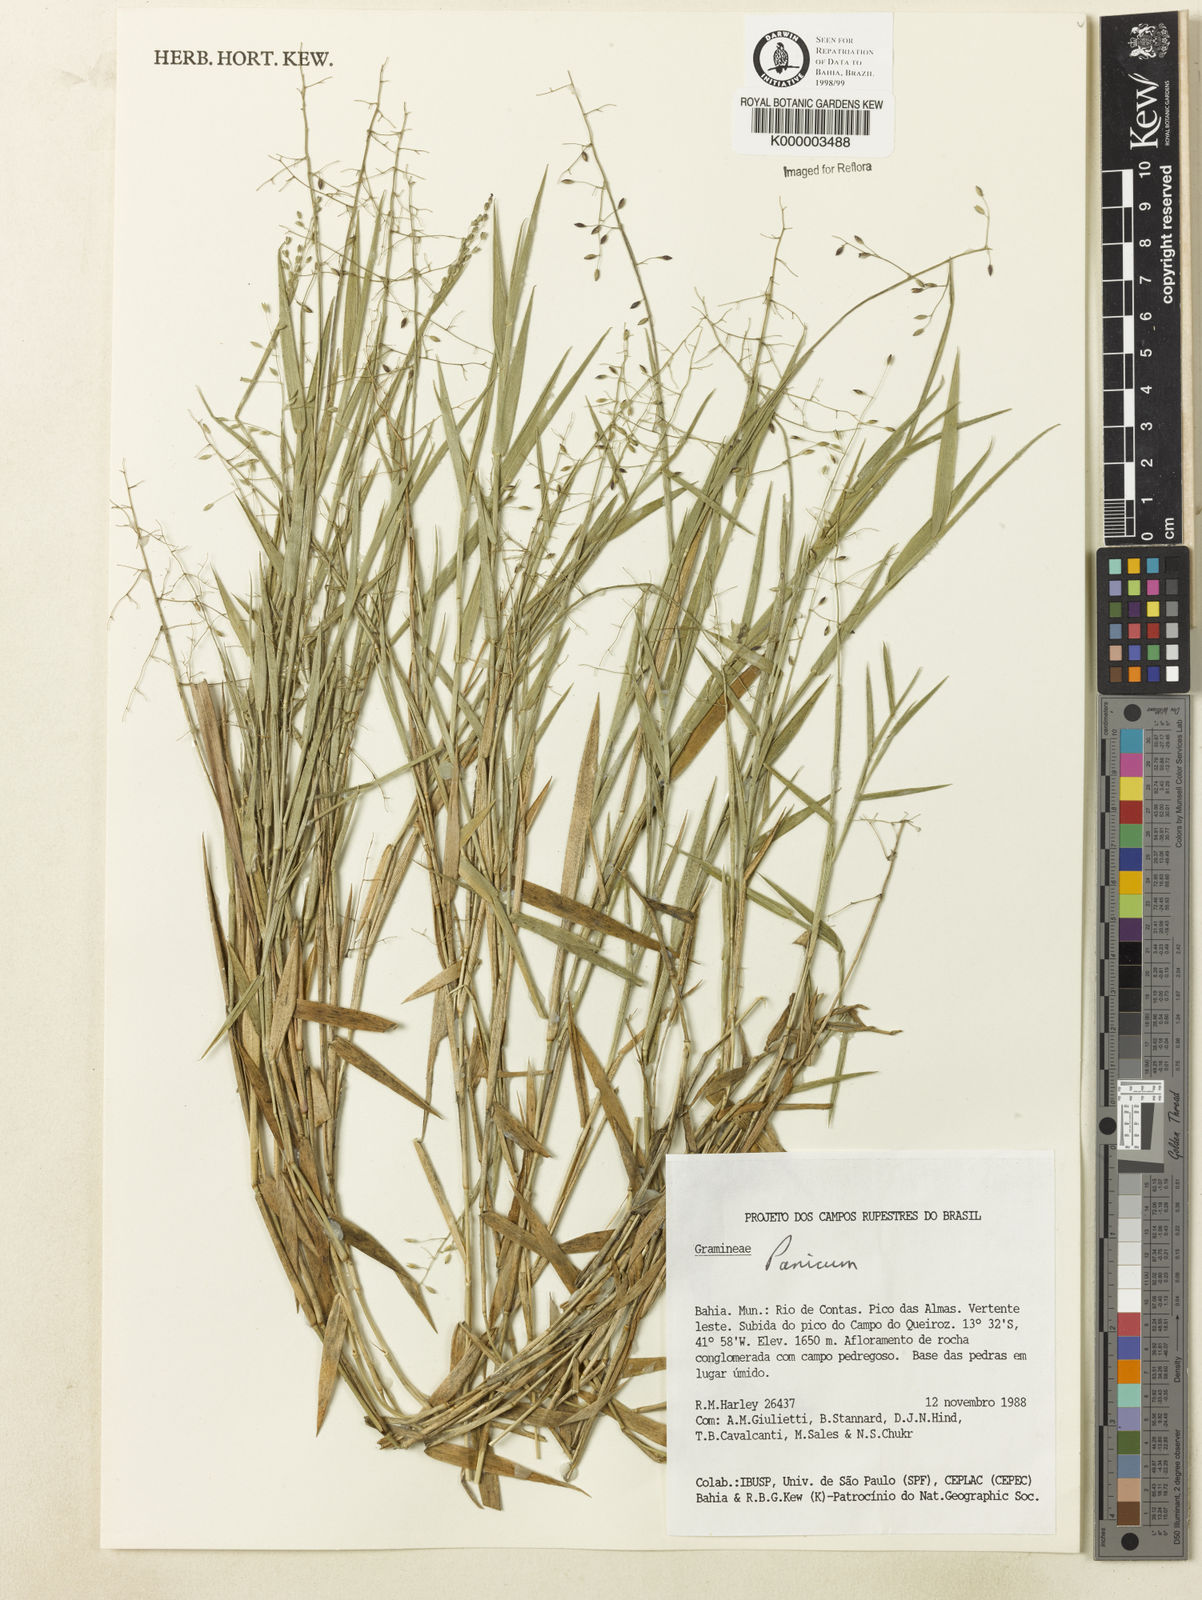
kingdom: Plantae
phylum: Tracheophyta
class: Liliopsida
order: Poales
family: Poaceae
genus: Dichanthelium
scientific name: Dichanthelium adenorhachis
